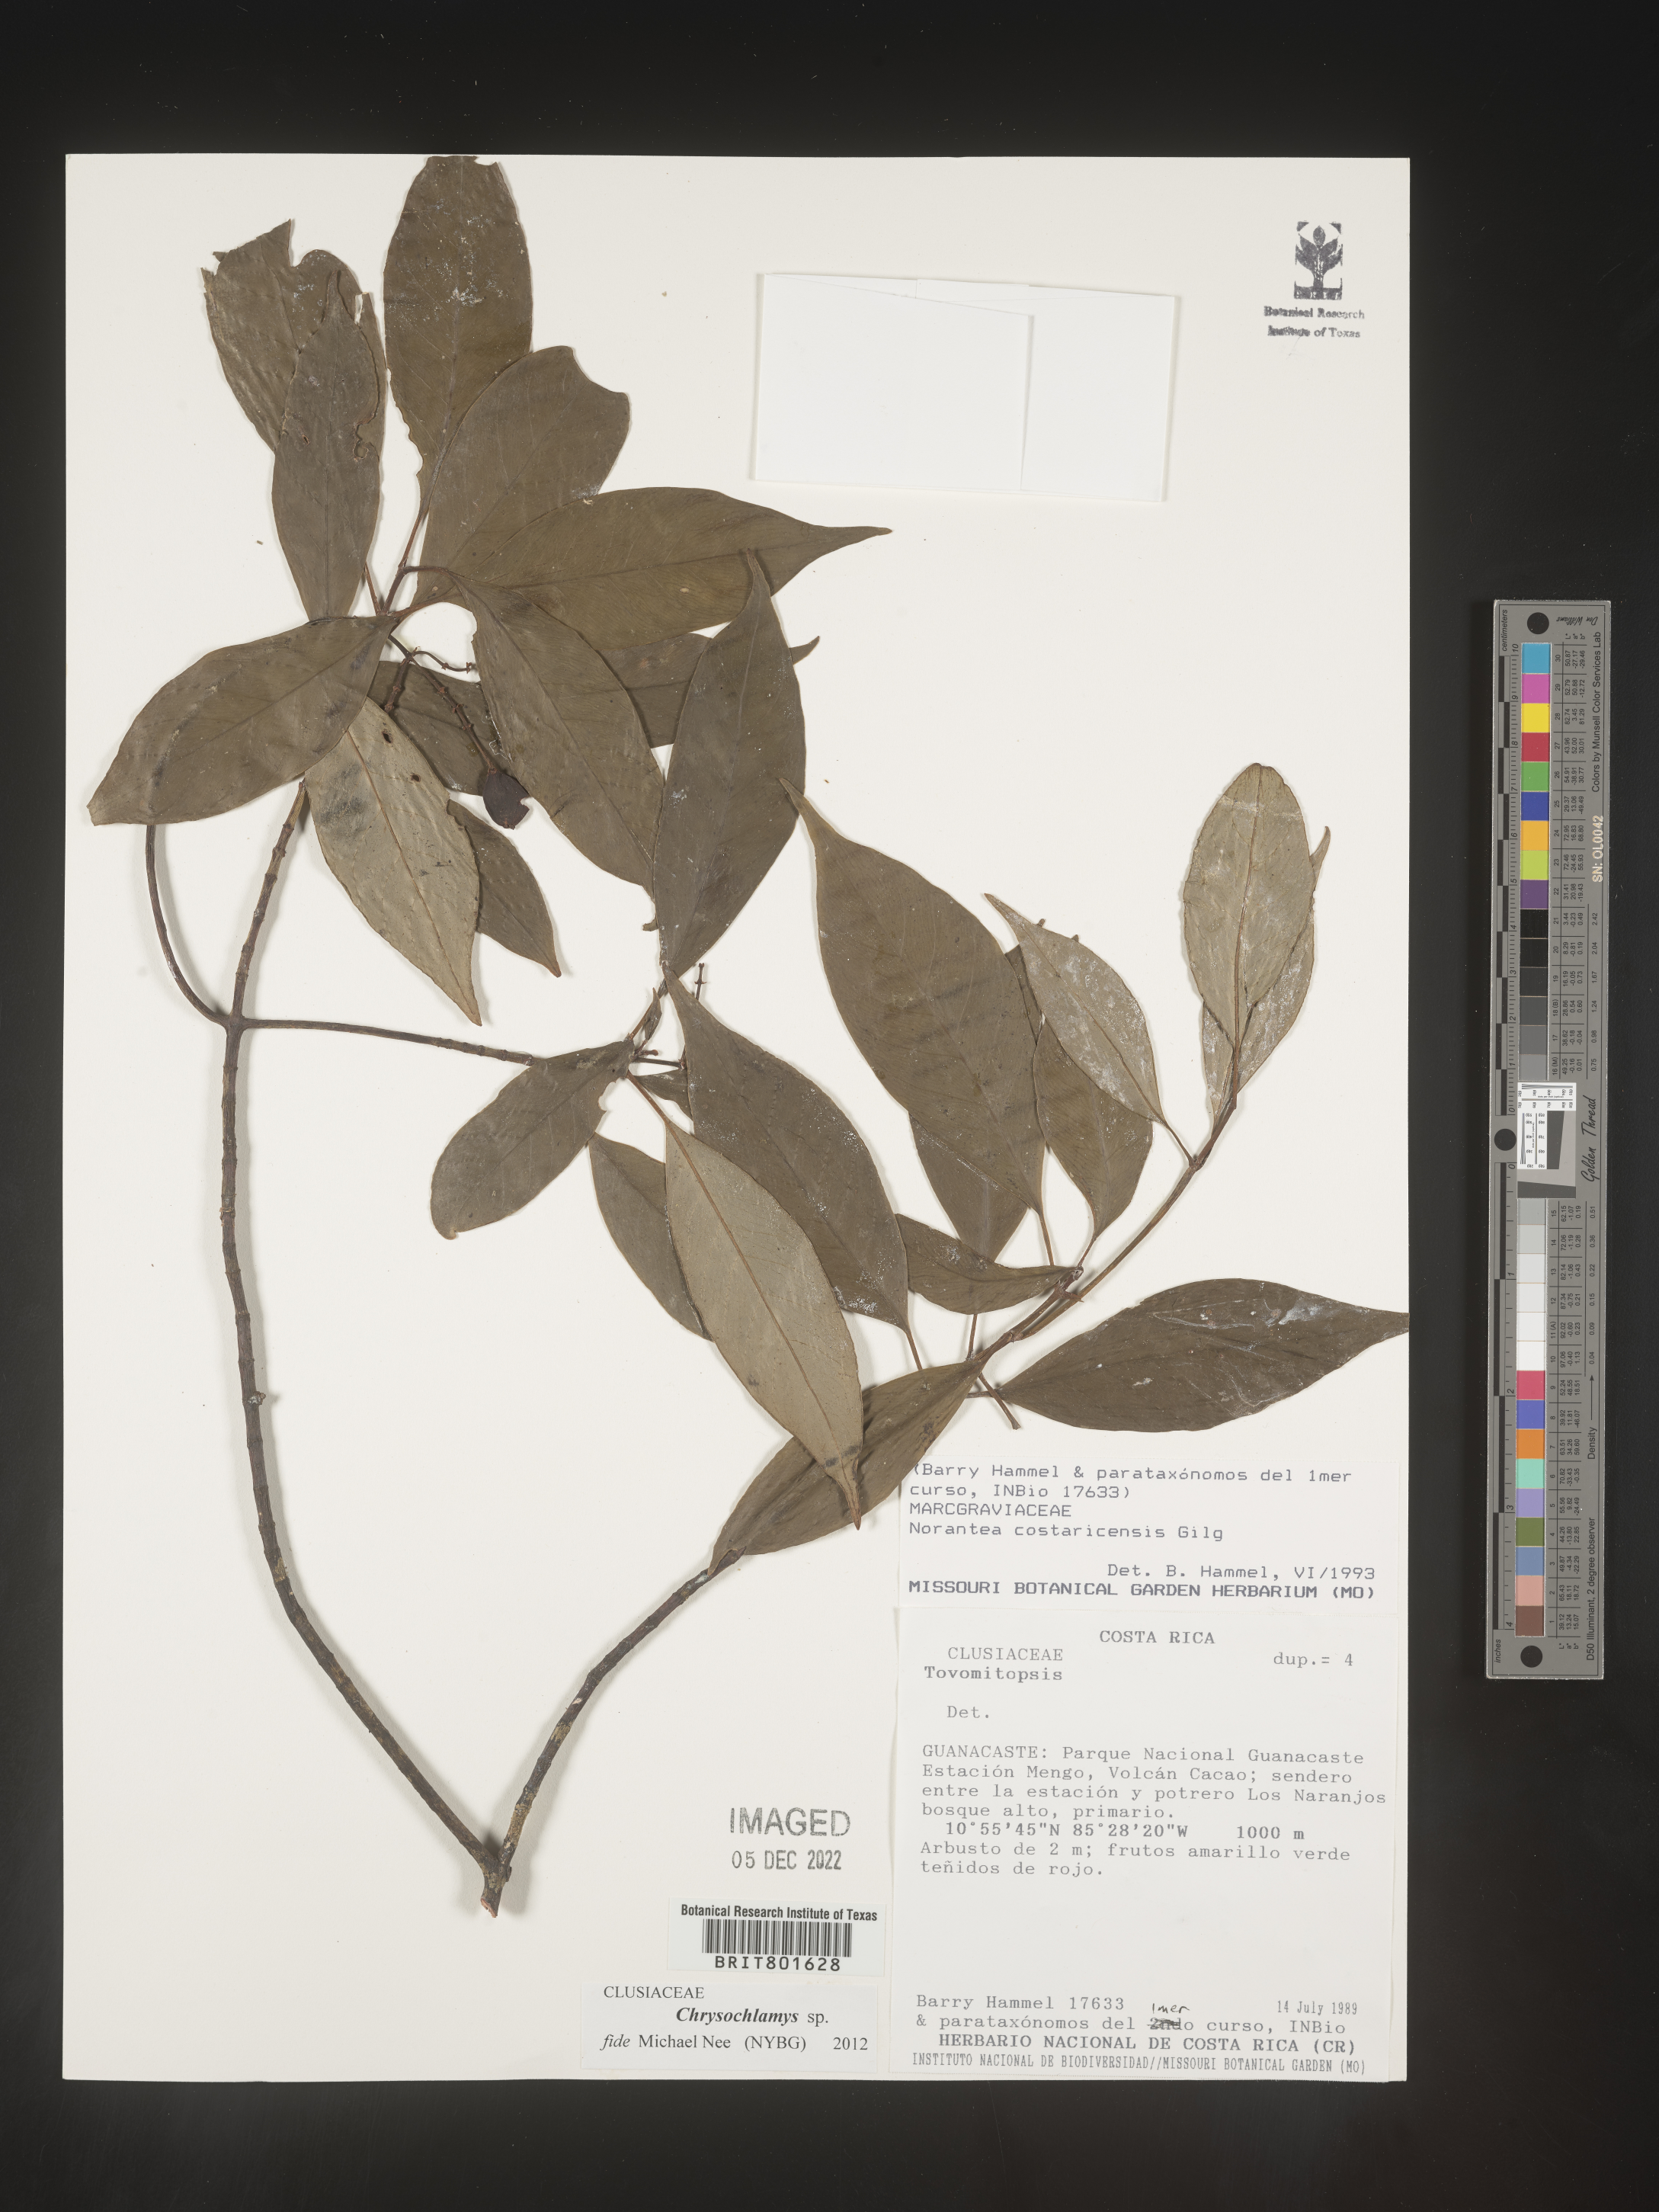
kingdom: Plantae
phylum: Tracheophyta
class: Magnoliopsida
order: Malpighiales
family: Clusiaceae
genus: Chrysochlamys
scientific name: Chrysochlamys
